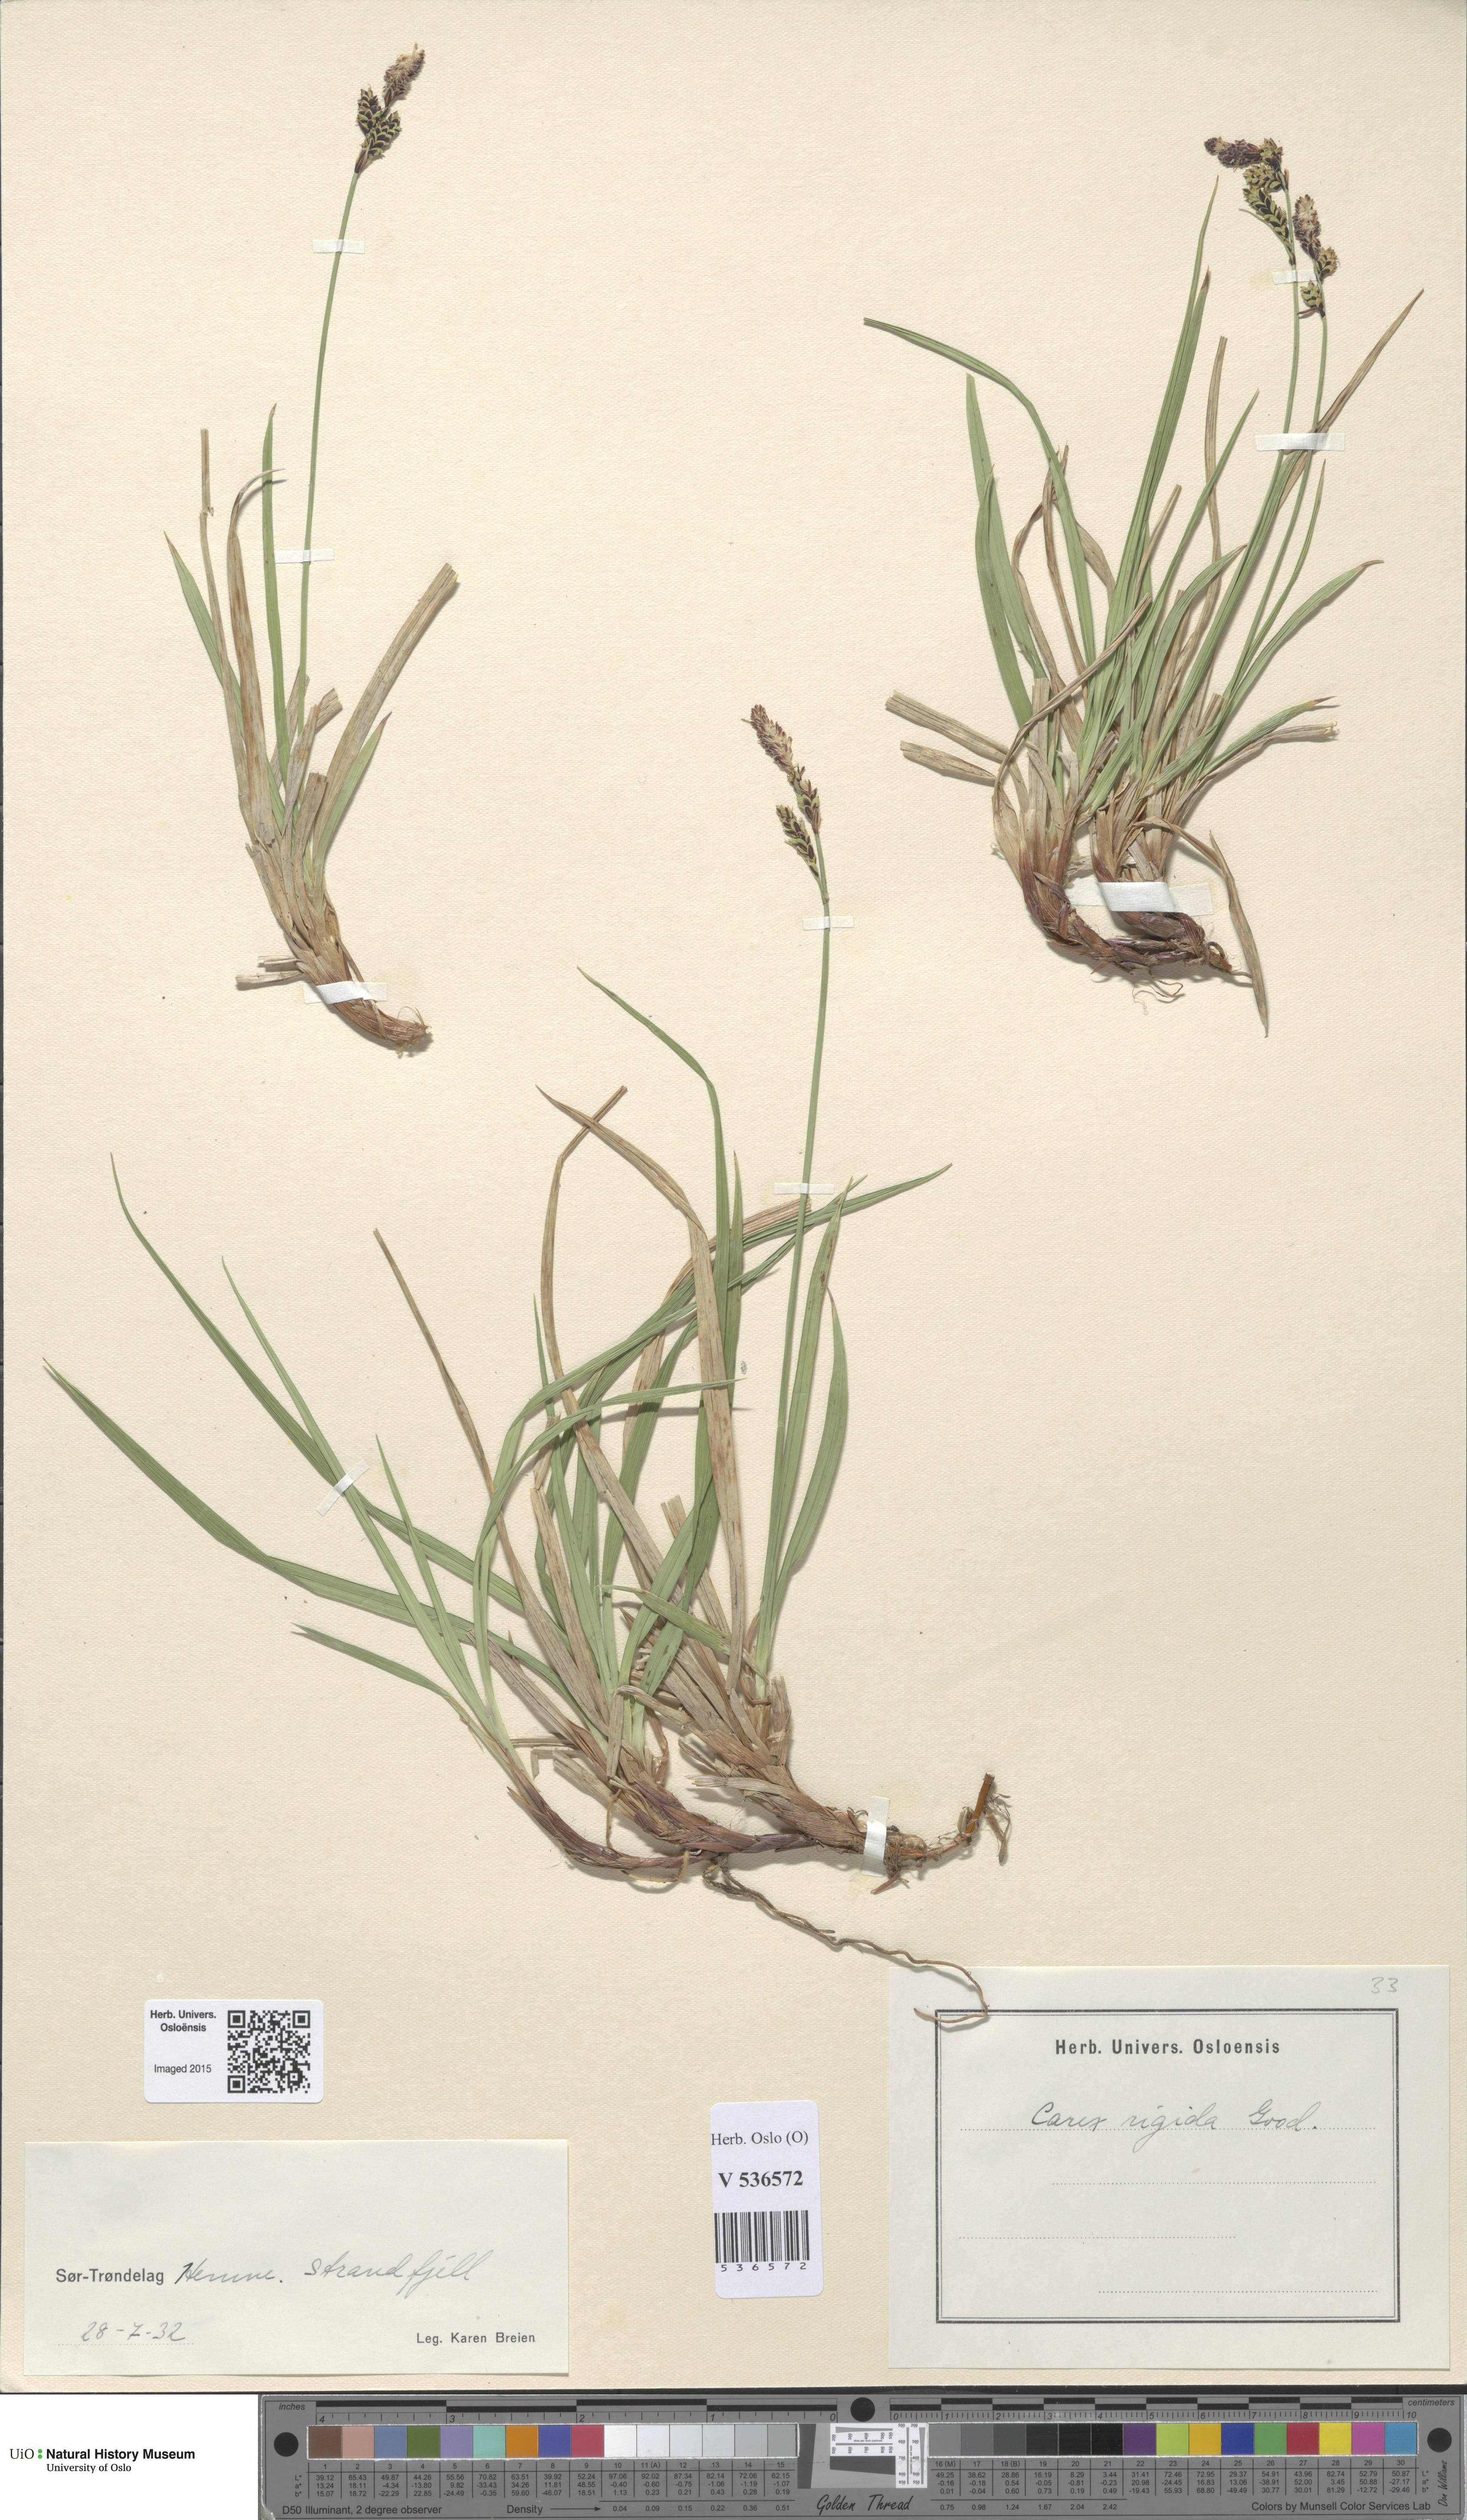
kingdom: Plantae
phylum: Tracheophyta
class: Liliopsida
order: Poales
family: Cyperaceae
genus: Carex
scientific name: Carex dacica
